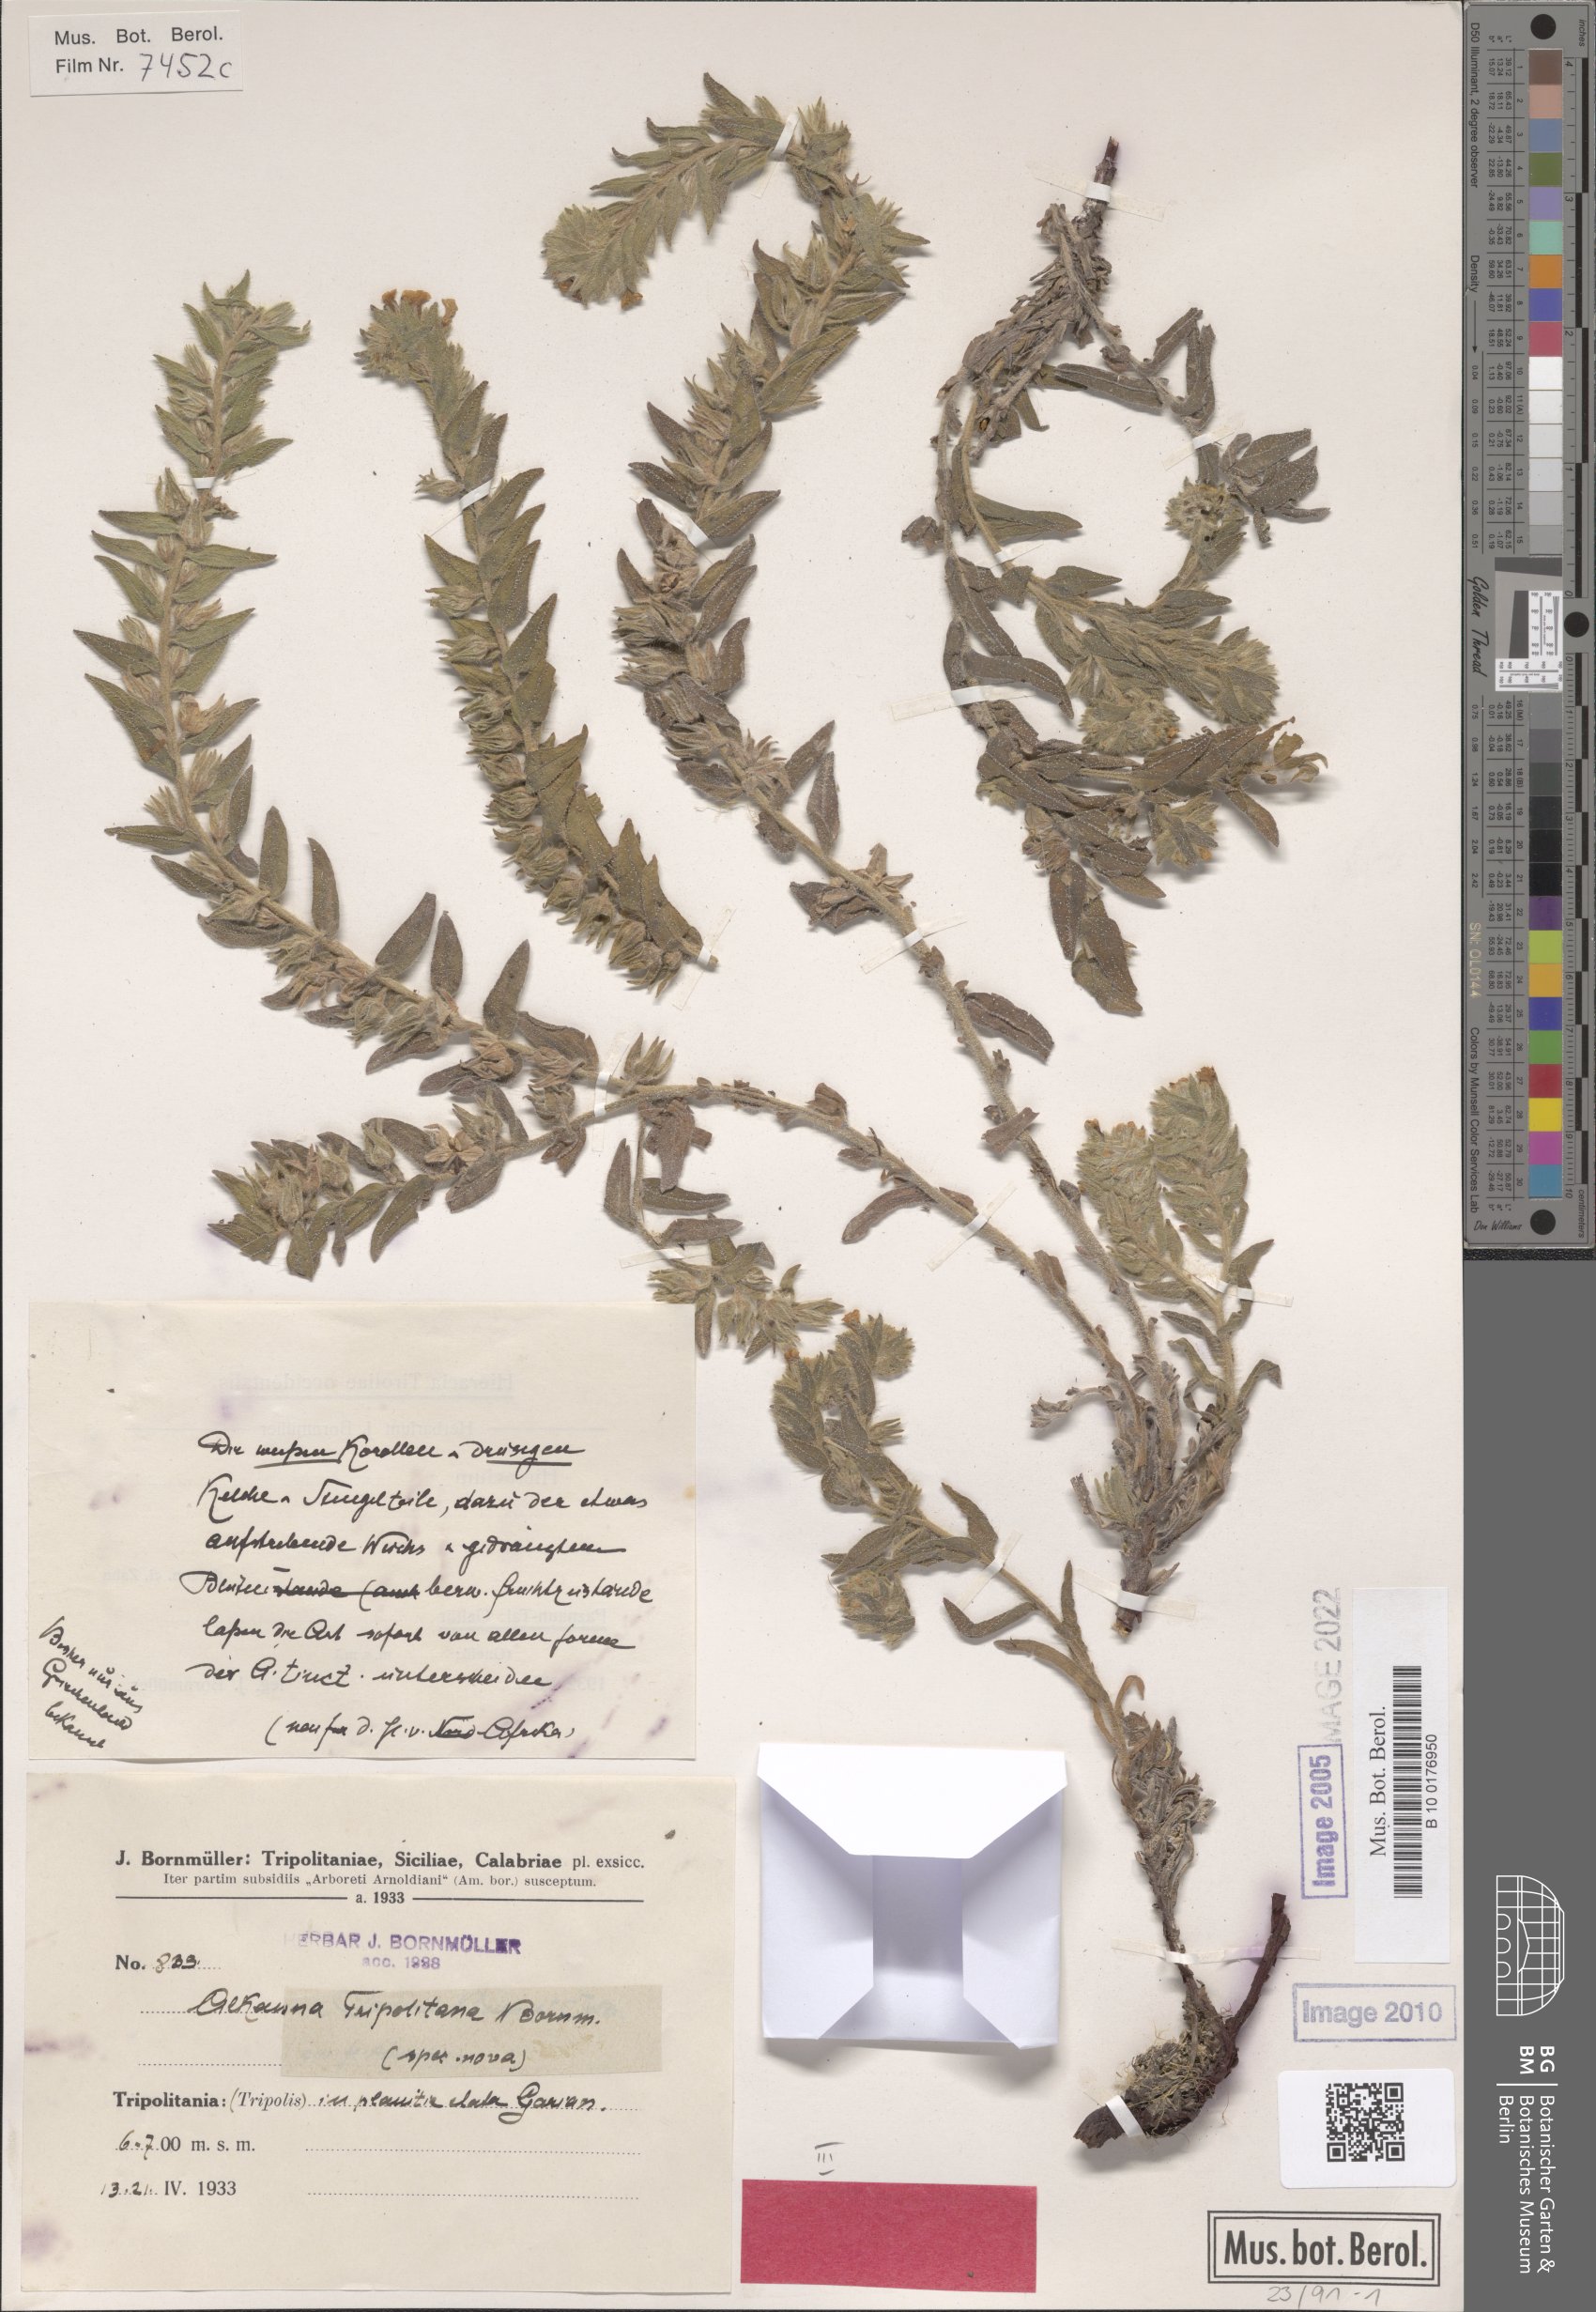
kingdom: Plantae
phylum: Tracheophyta
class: Magnoliopsida
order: Boraginales
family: Boraginaceae
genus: Alkanna
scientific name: Alkanna tinctoria
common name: Dyer's-alkanet
